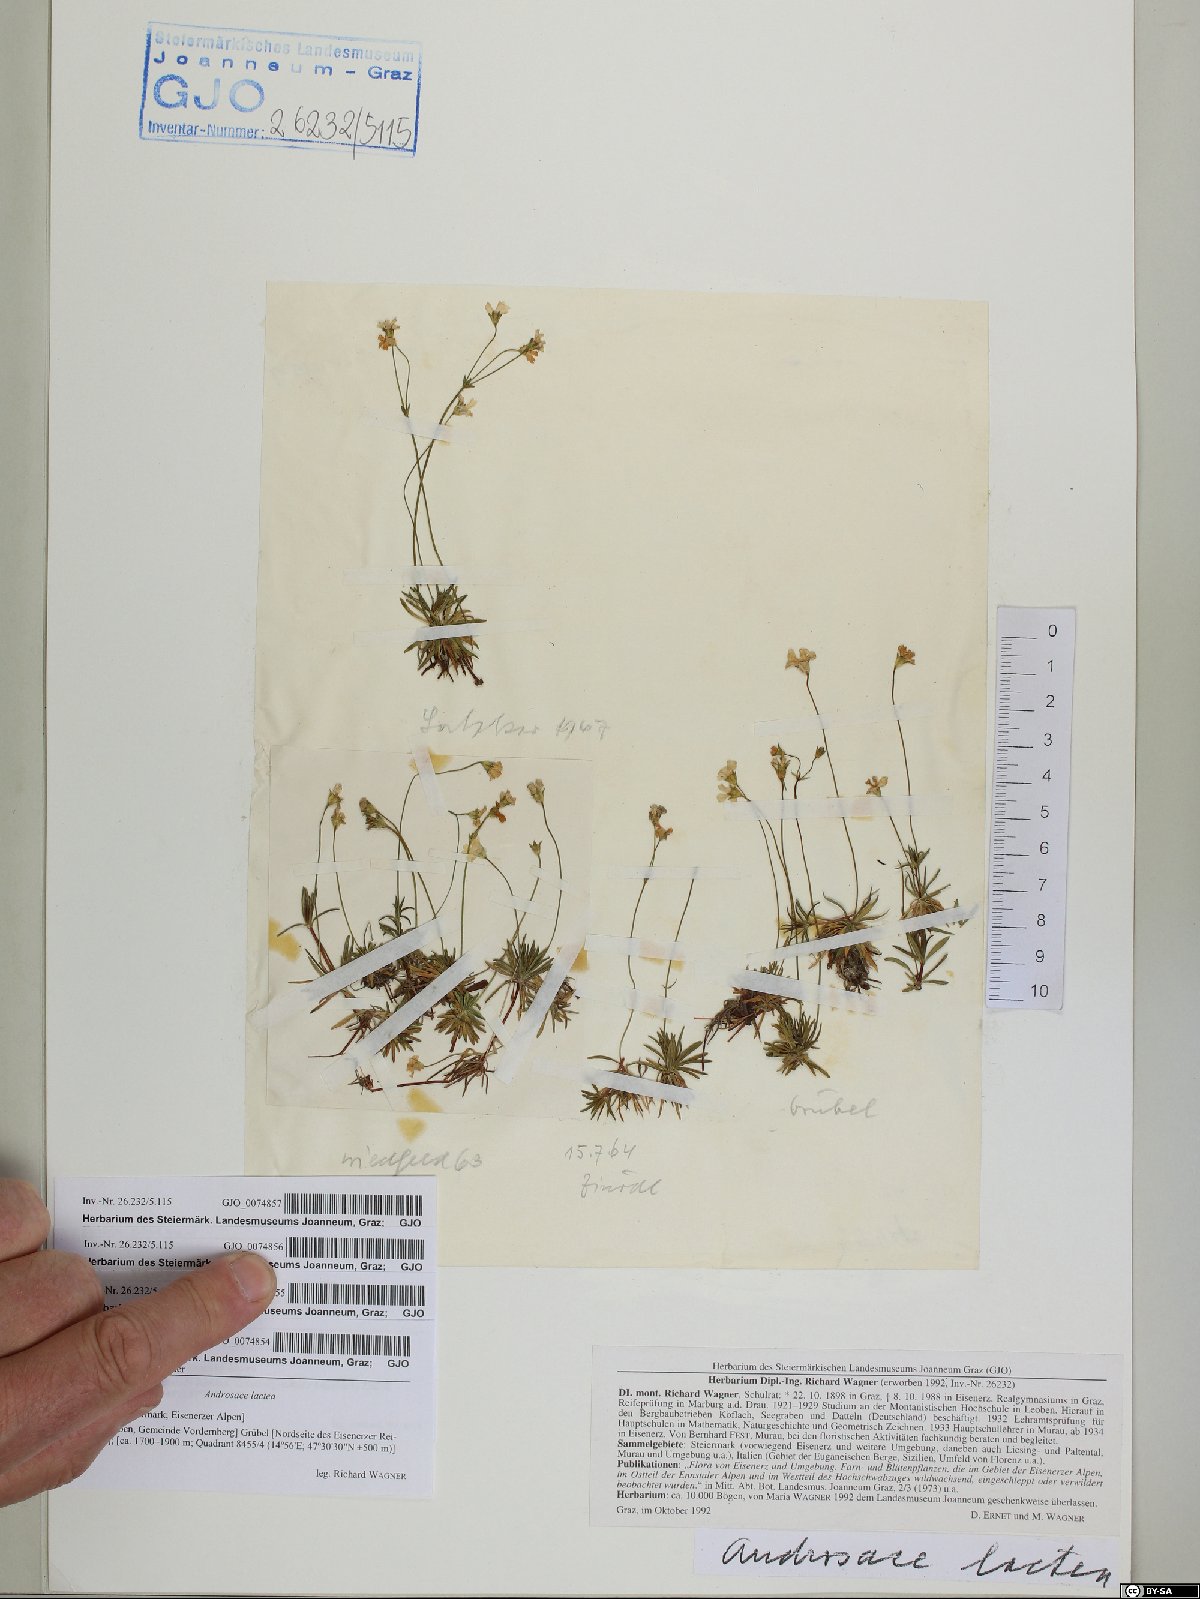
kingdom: Plantae
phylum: Tracheophyta
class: Magnoliopsida
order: Ericales
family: Primulaceae
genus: Androsace
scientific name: Androsace lactea
